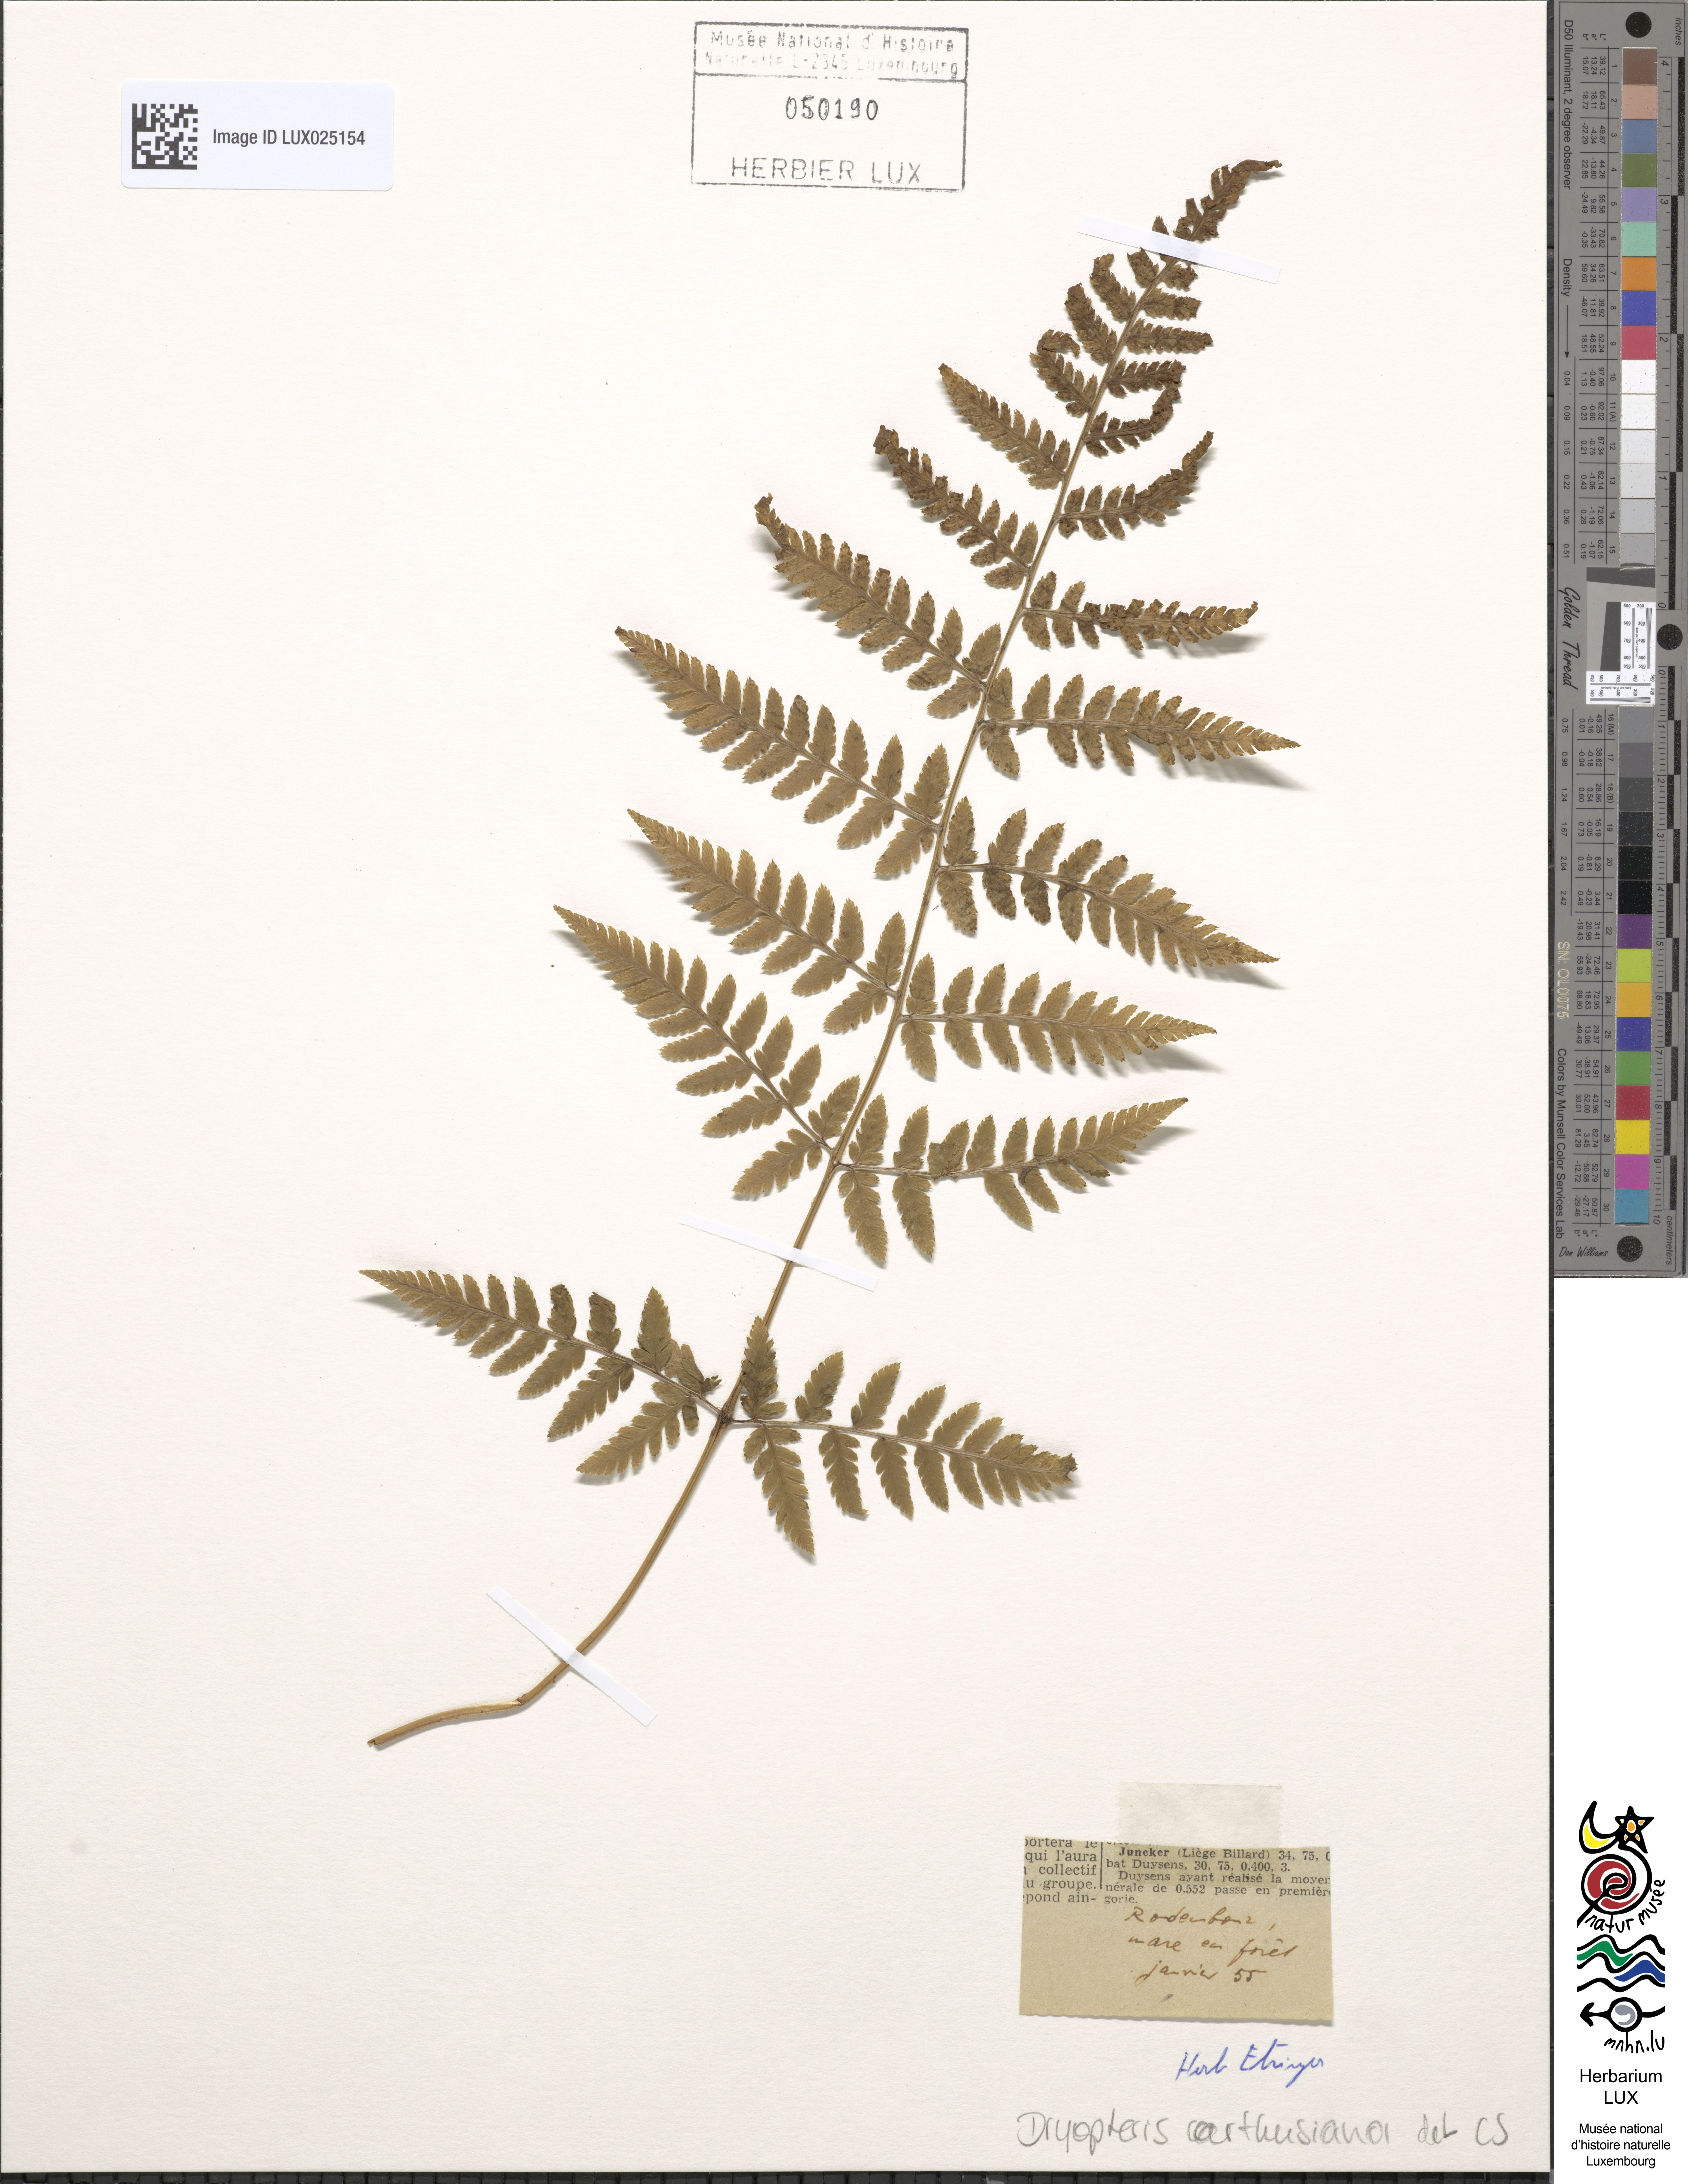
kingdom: Plantae
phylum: Tracheophyta
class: Polypodiopsida
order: Polypodiales
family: Dryopteridaceae
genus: Dryopteris
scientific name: Dryopteris carthusiana
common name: Narrow buckler-fern
